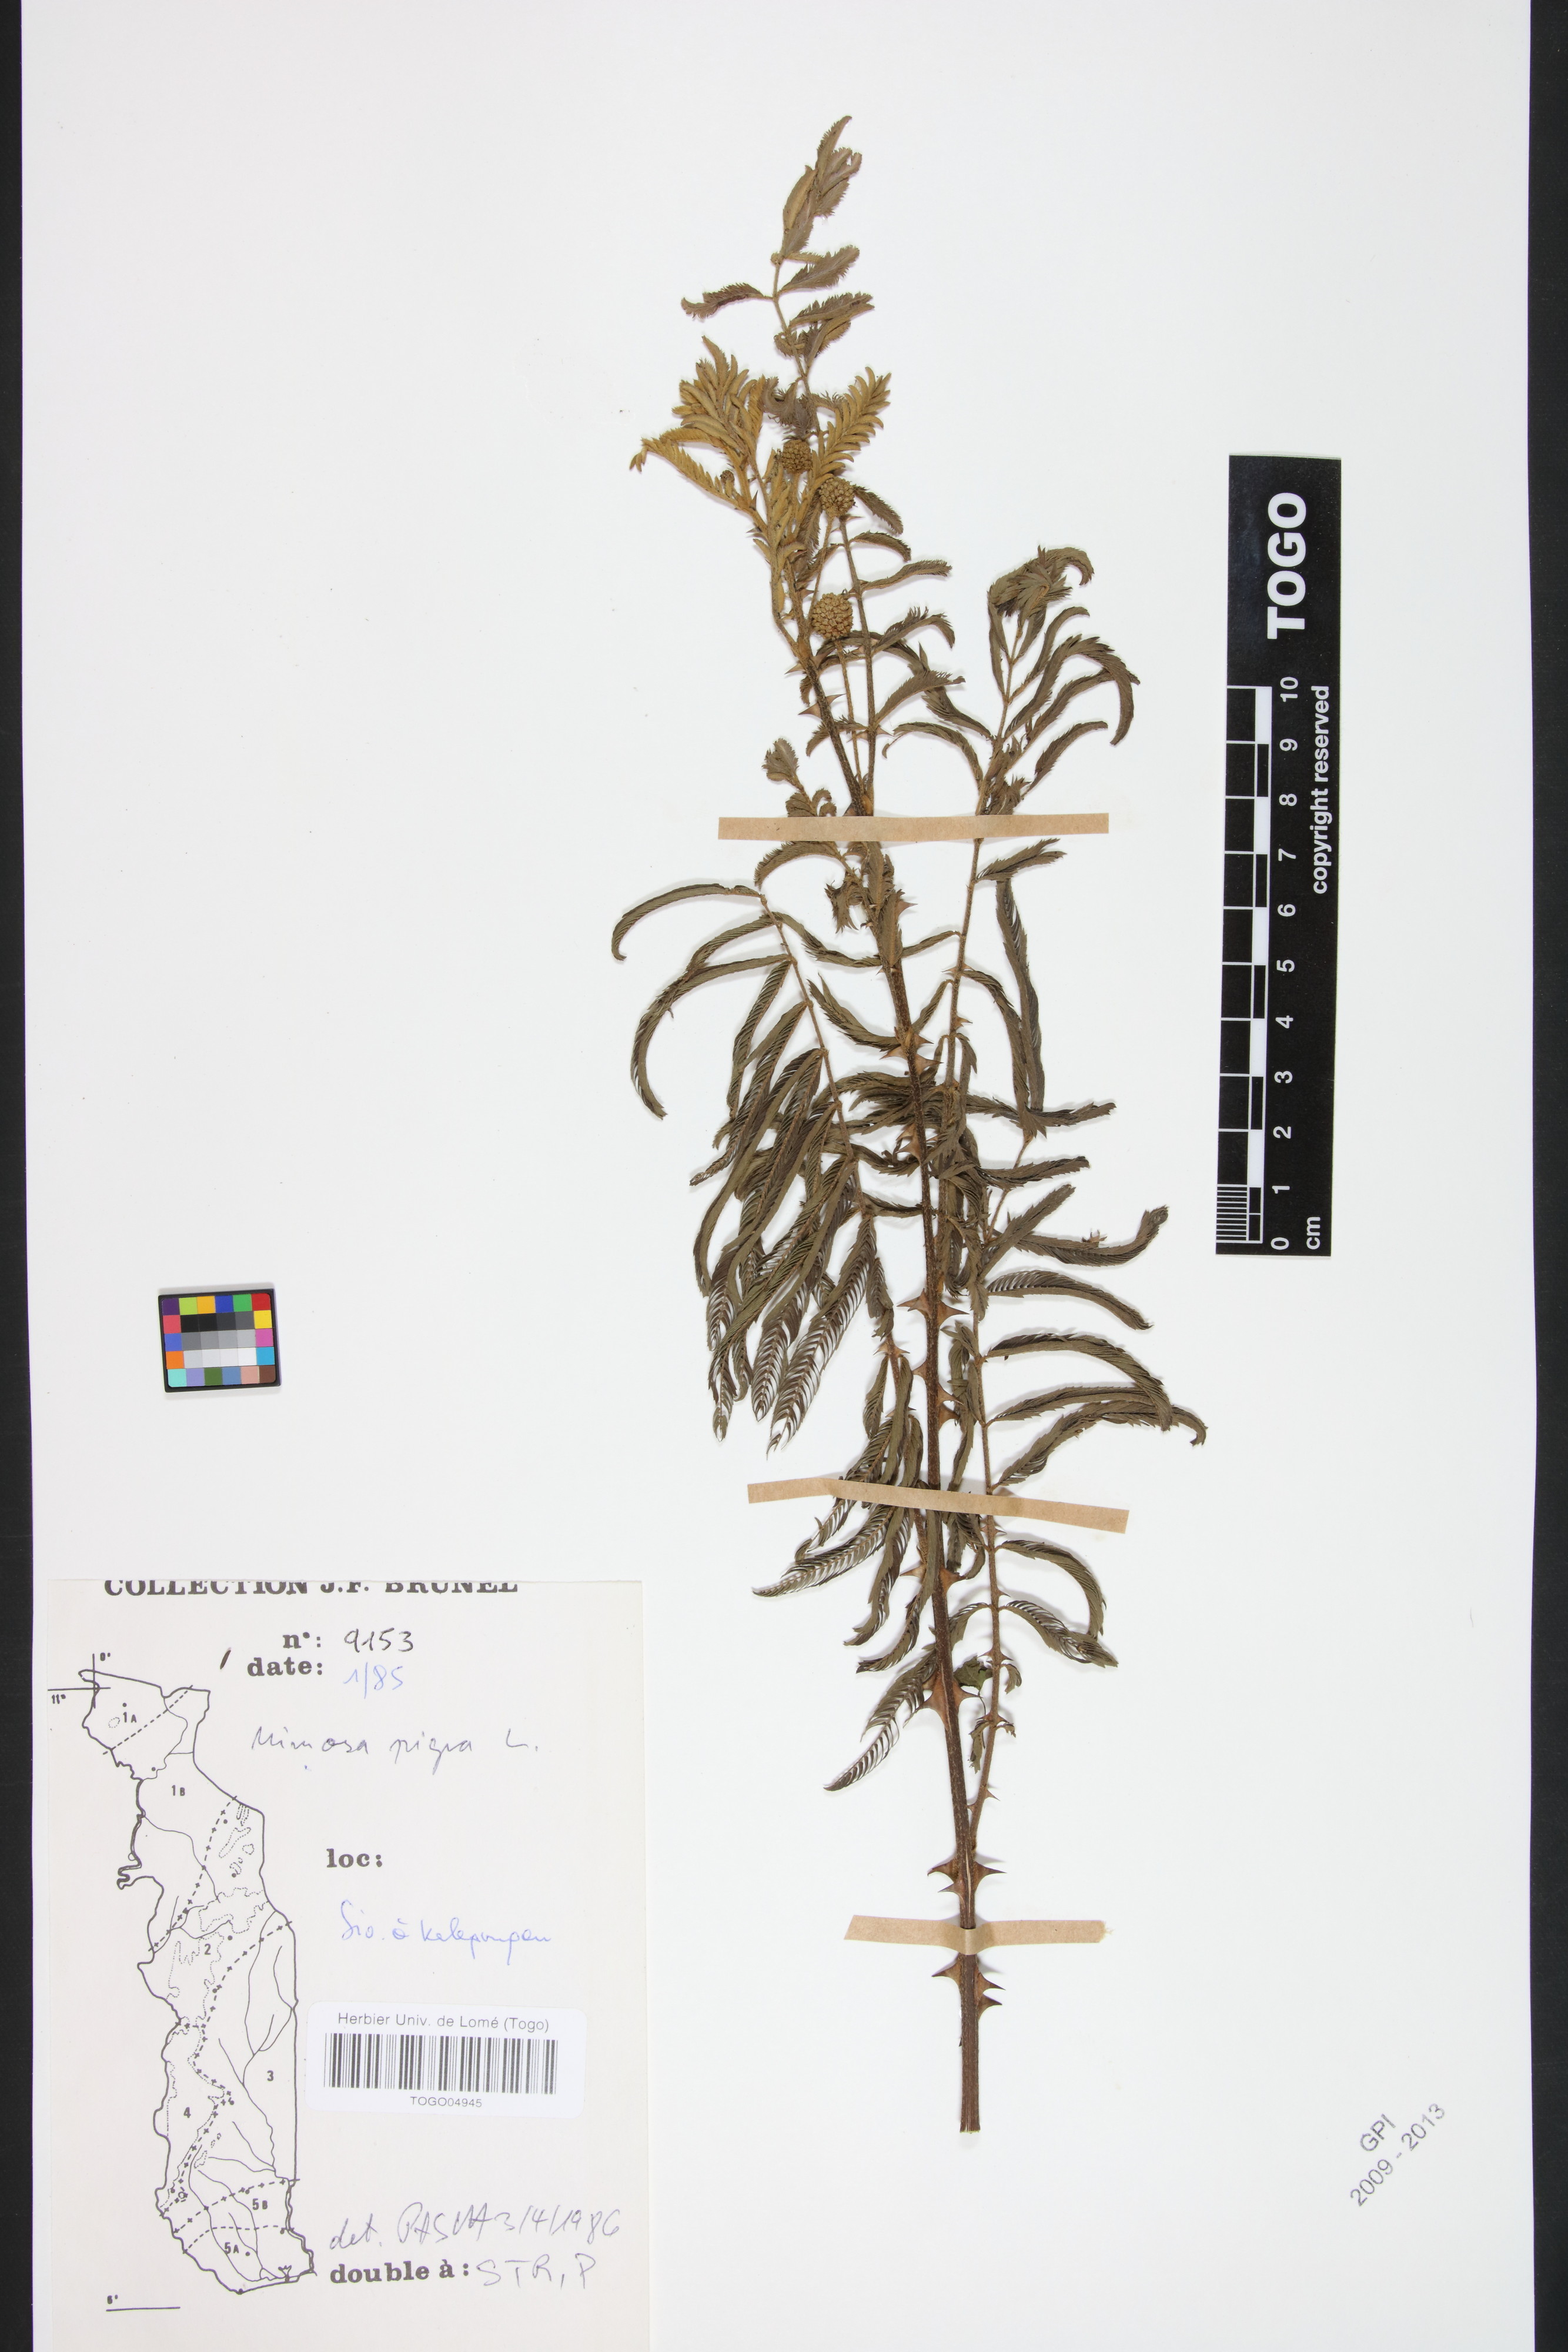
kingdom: Plantae
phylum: Tracheophyta
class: Magnoliopsida
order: Fabales
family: Fabaceae
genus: Mimosa
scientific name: Mimosa pigra
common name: Black mimosa
